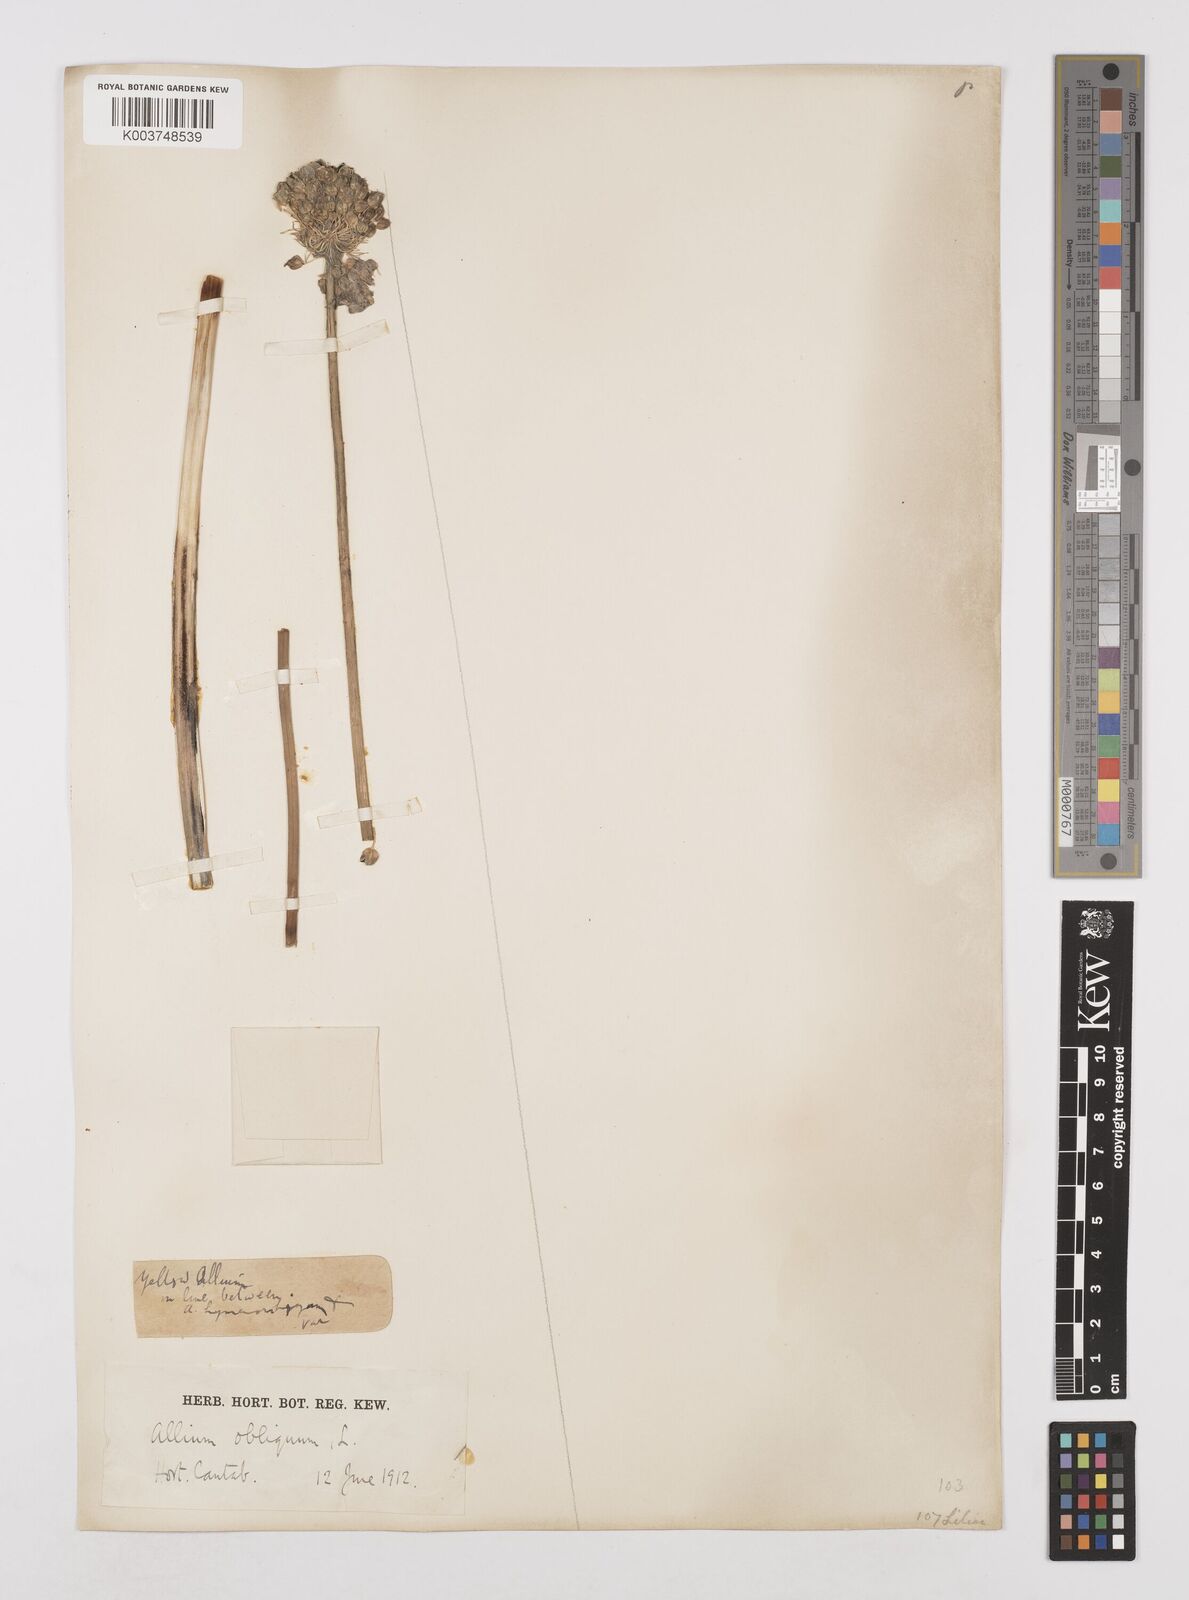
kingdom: Plantae
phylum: Tracheophyta
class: Liliopsida
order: Asparagales
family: Amaryllidaceae
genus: Allium
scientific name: Allium obliquum
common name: Oblique onion
